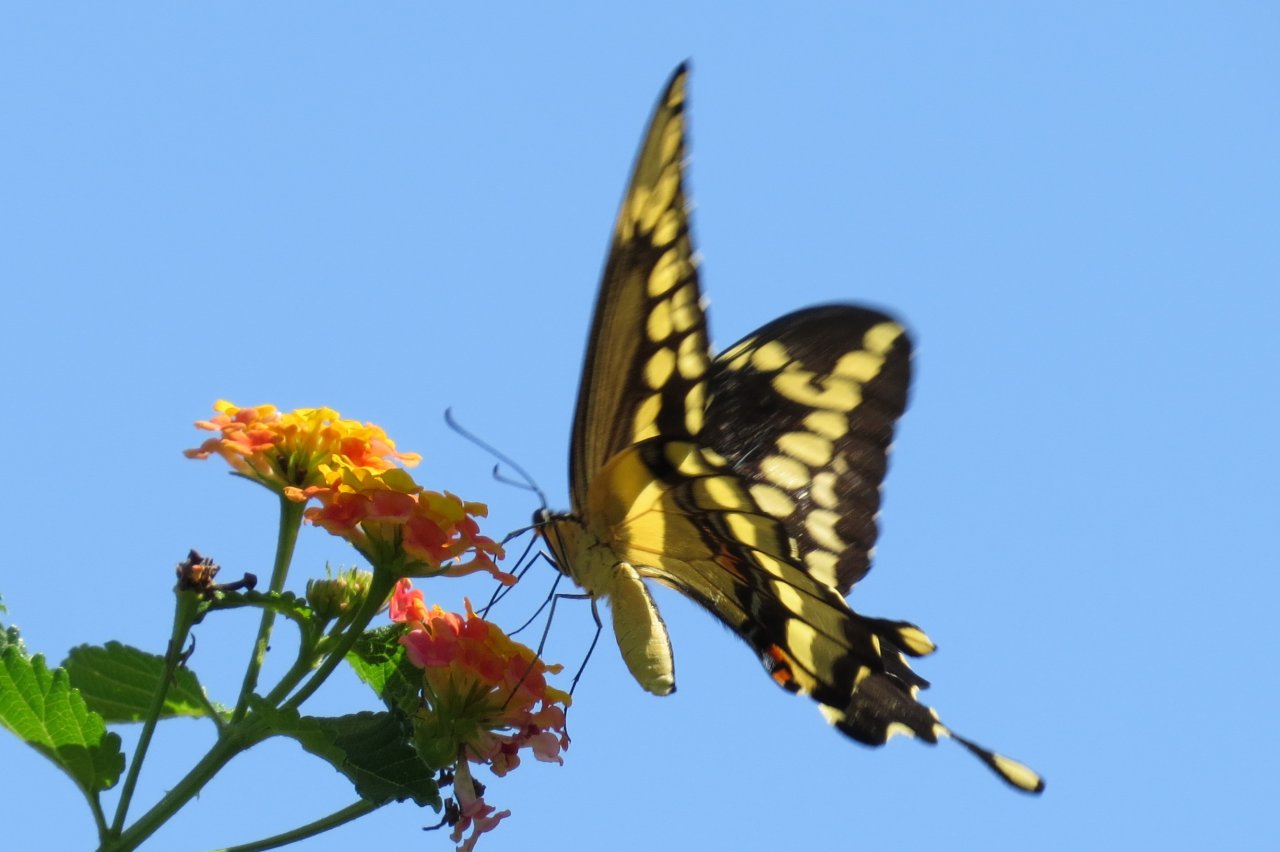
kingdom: Animalia
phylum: Arthropoda
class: Insecta
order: Lepidoptera
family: Papilionidae
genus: Papilio
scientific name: Papilio cresphontes
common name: Eastern Giant Swallowtail
